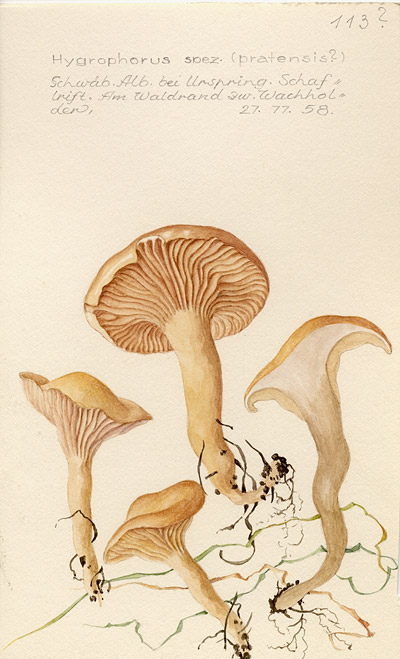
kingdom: Fungi
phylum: Basidiomycota
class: Agaricomycetes
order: Agaricales
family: Hygrophoraceae
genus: Cuphophyllus
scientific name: Cuphophyllus pratensis
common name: Meadow waxcap
